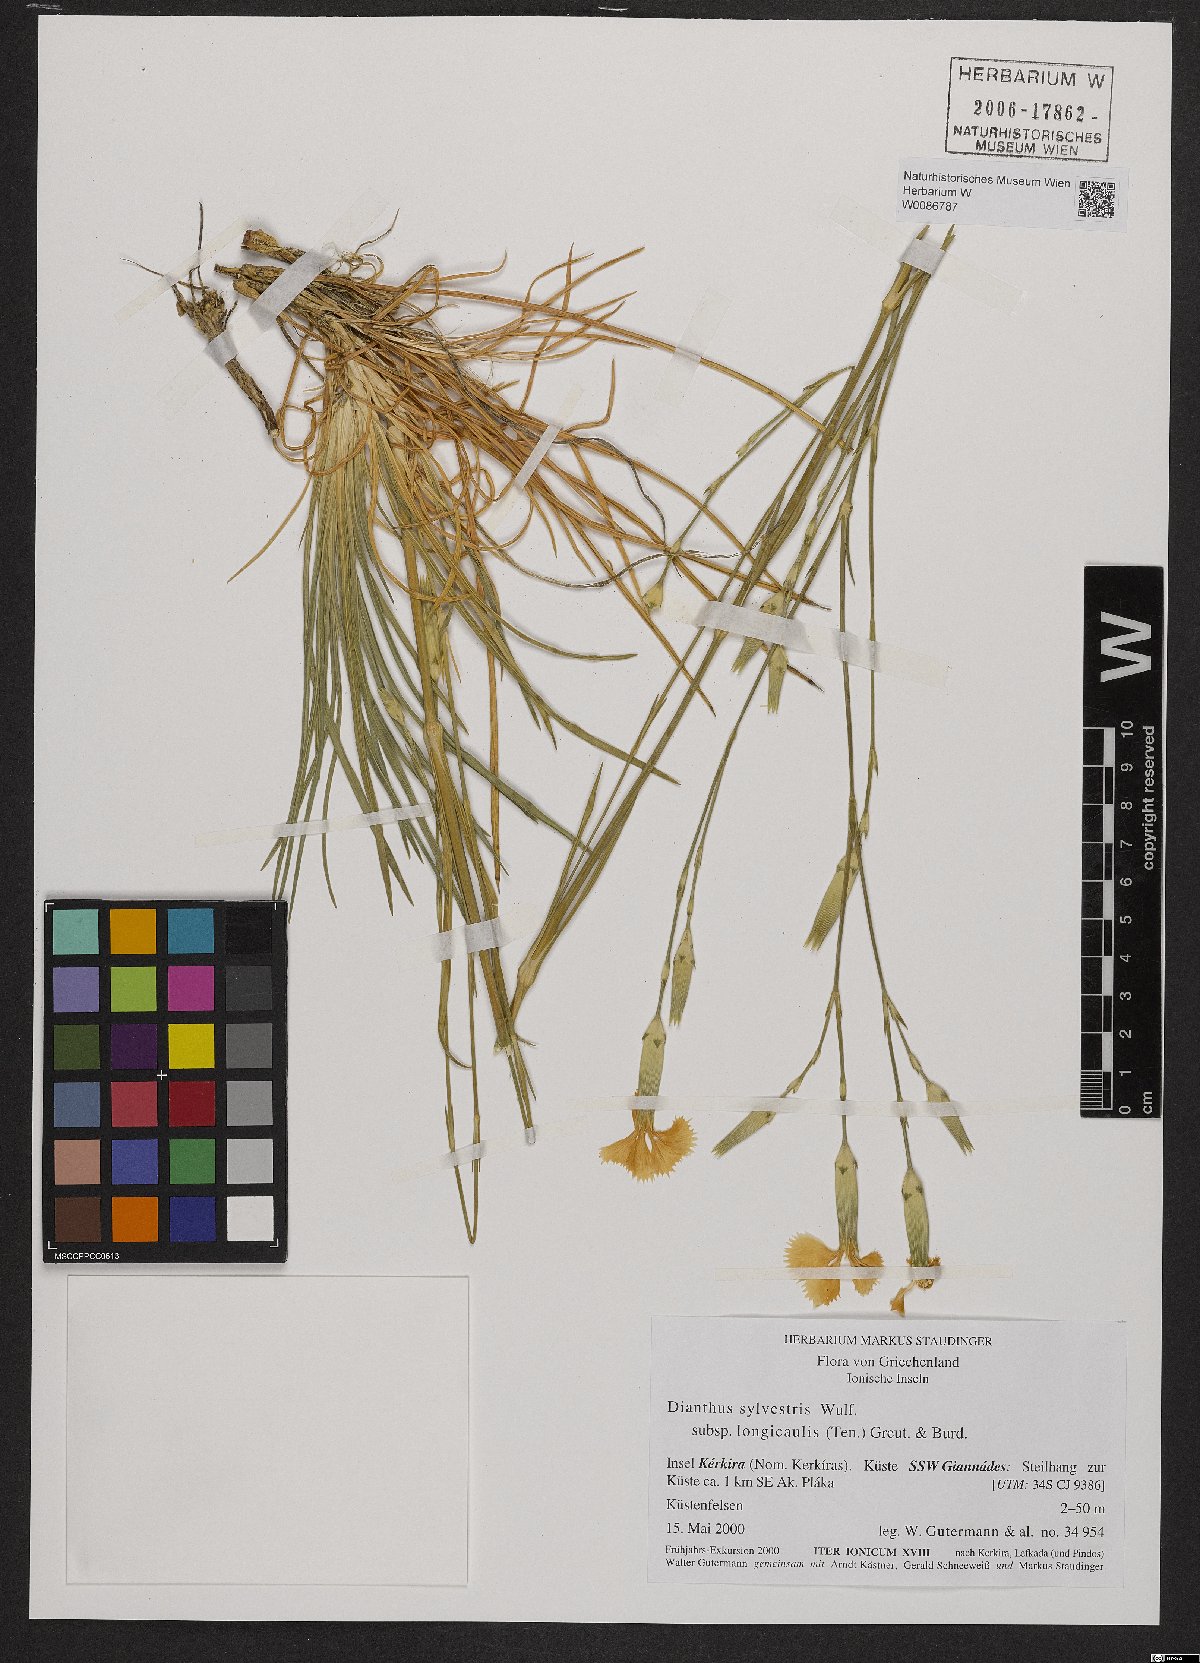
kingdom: Plantae
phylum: Tracheophyta
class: Magnoliopsida
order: Caryophyllales
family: Caryophyllaceae
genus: Dianthus
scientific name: Dianthus virgineus
